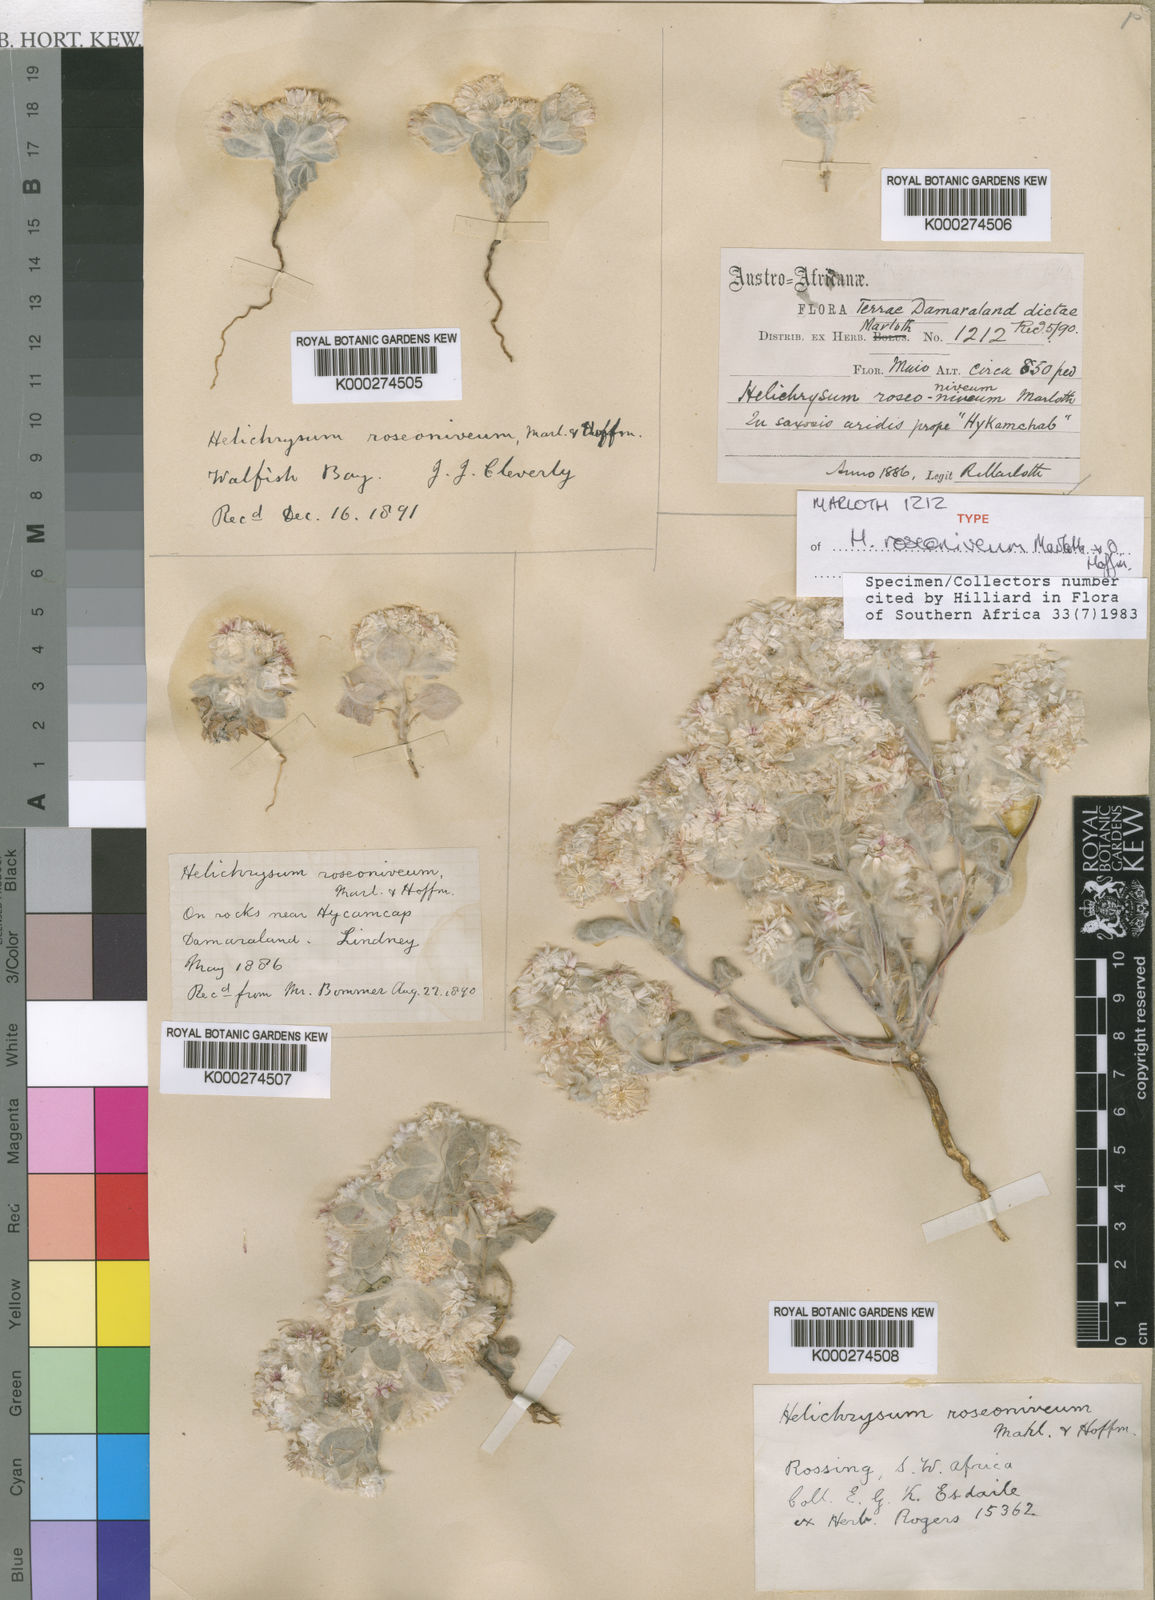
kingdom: Plantae
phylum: Tracheophyta
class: Magnoliopsida
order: Asterales
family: Asteraceae
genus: Helichrysum
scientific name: Helichrysum roseoniveum
